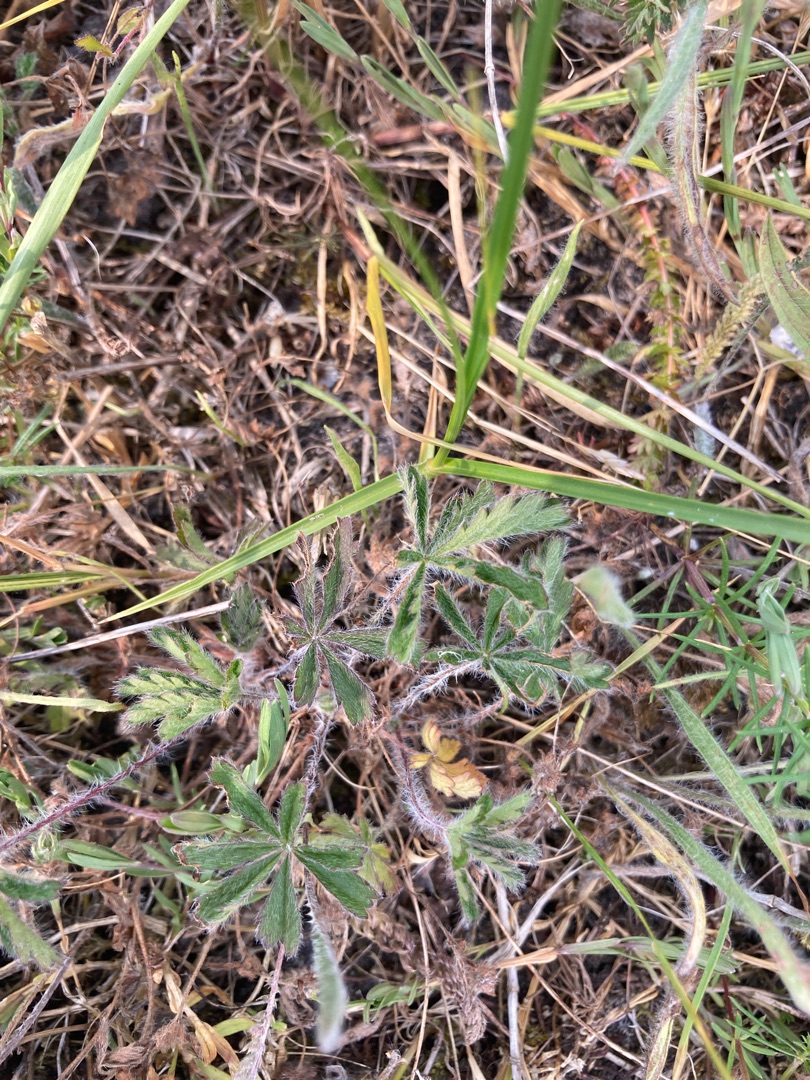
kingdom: Plantae
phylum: Tracheophyta
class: Magnoliopsida
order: Rosales
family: Rosaceae
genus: Potentilla
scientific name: Potentilla heptaphylla
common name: Mat potentil
